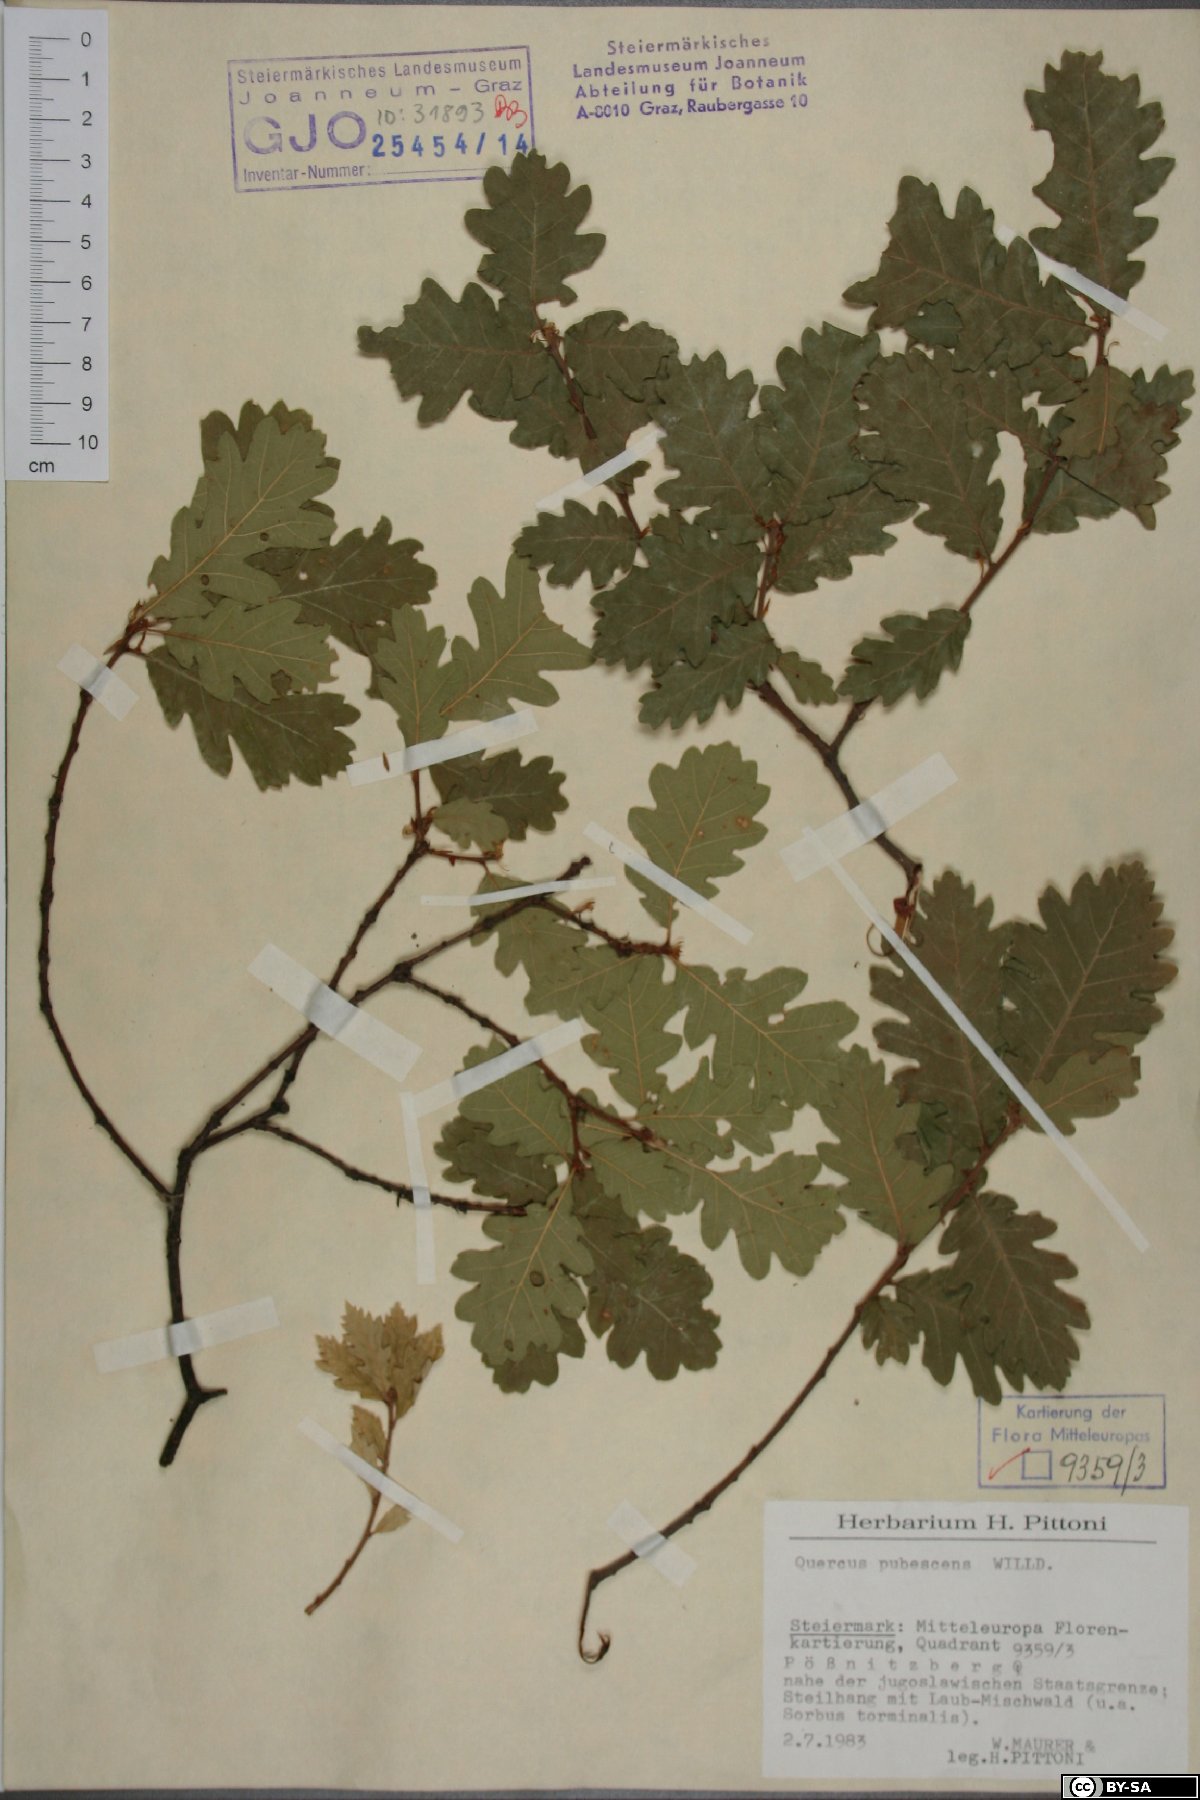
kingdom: Plantae
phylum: Tracheophyta
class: Magnoliopsida
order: Fagales
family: Fagaceae
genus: Quercus
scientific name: Quercus pubescens
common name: Downy oak
